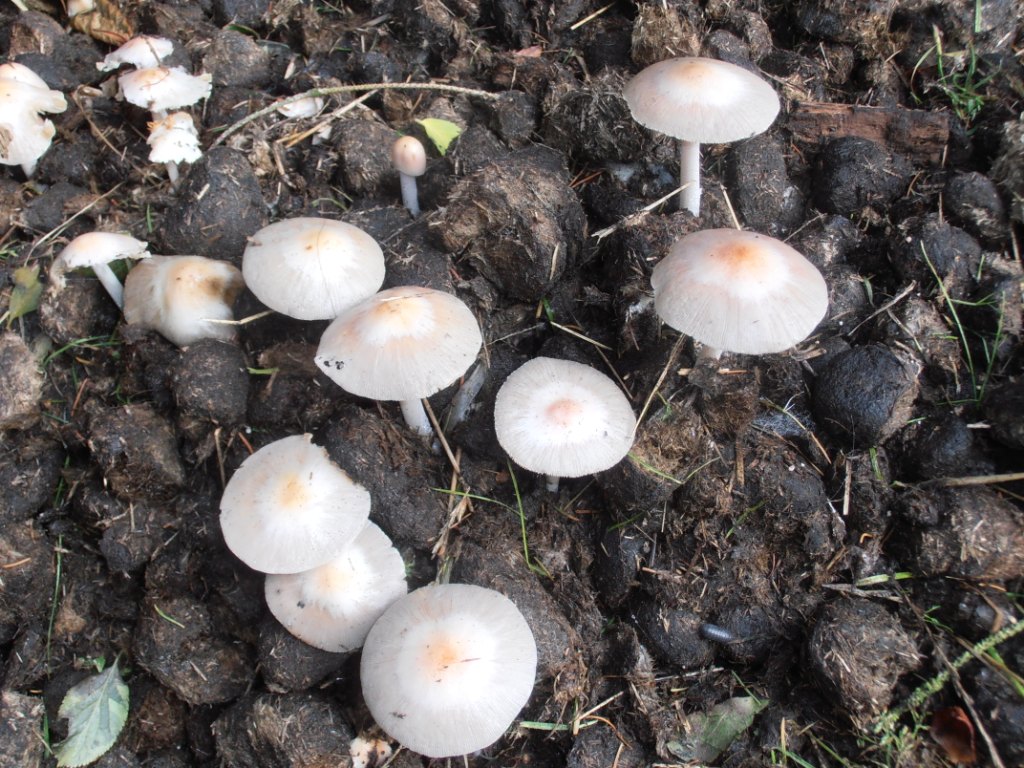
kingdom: Fungi
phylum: Basidiomycota
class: Agaricomycetes
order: Agaricales
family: Bolbitiaceae
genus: Bolbitius
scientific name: Bolbitius coprophilus
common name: rosa gulhat
